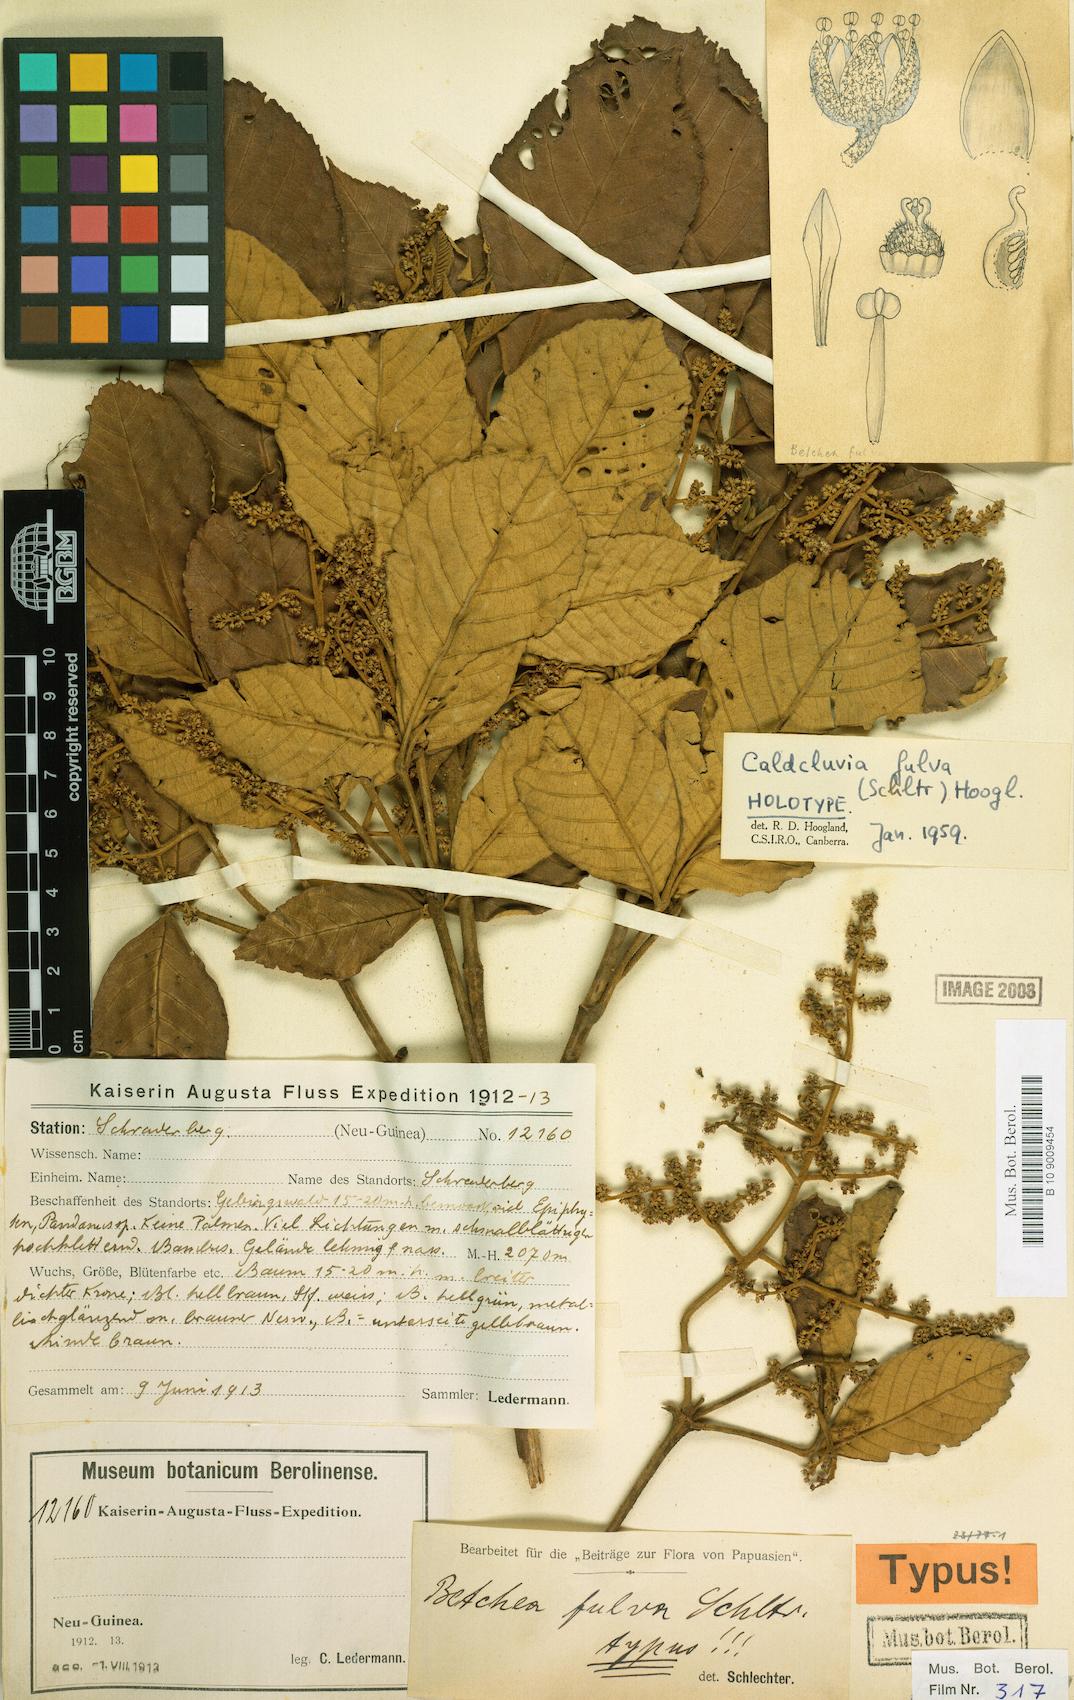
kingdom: Plantae
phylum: Tracheophyta
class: Magnoliopsida
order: Oxalidales
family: Cunoniaceae
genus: Ackama
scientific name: Ackama fulva
